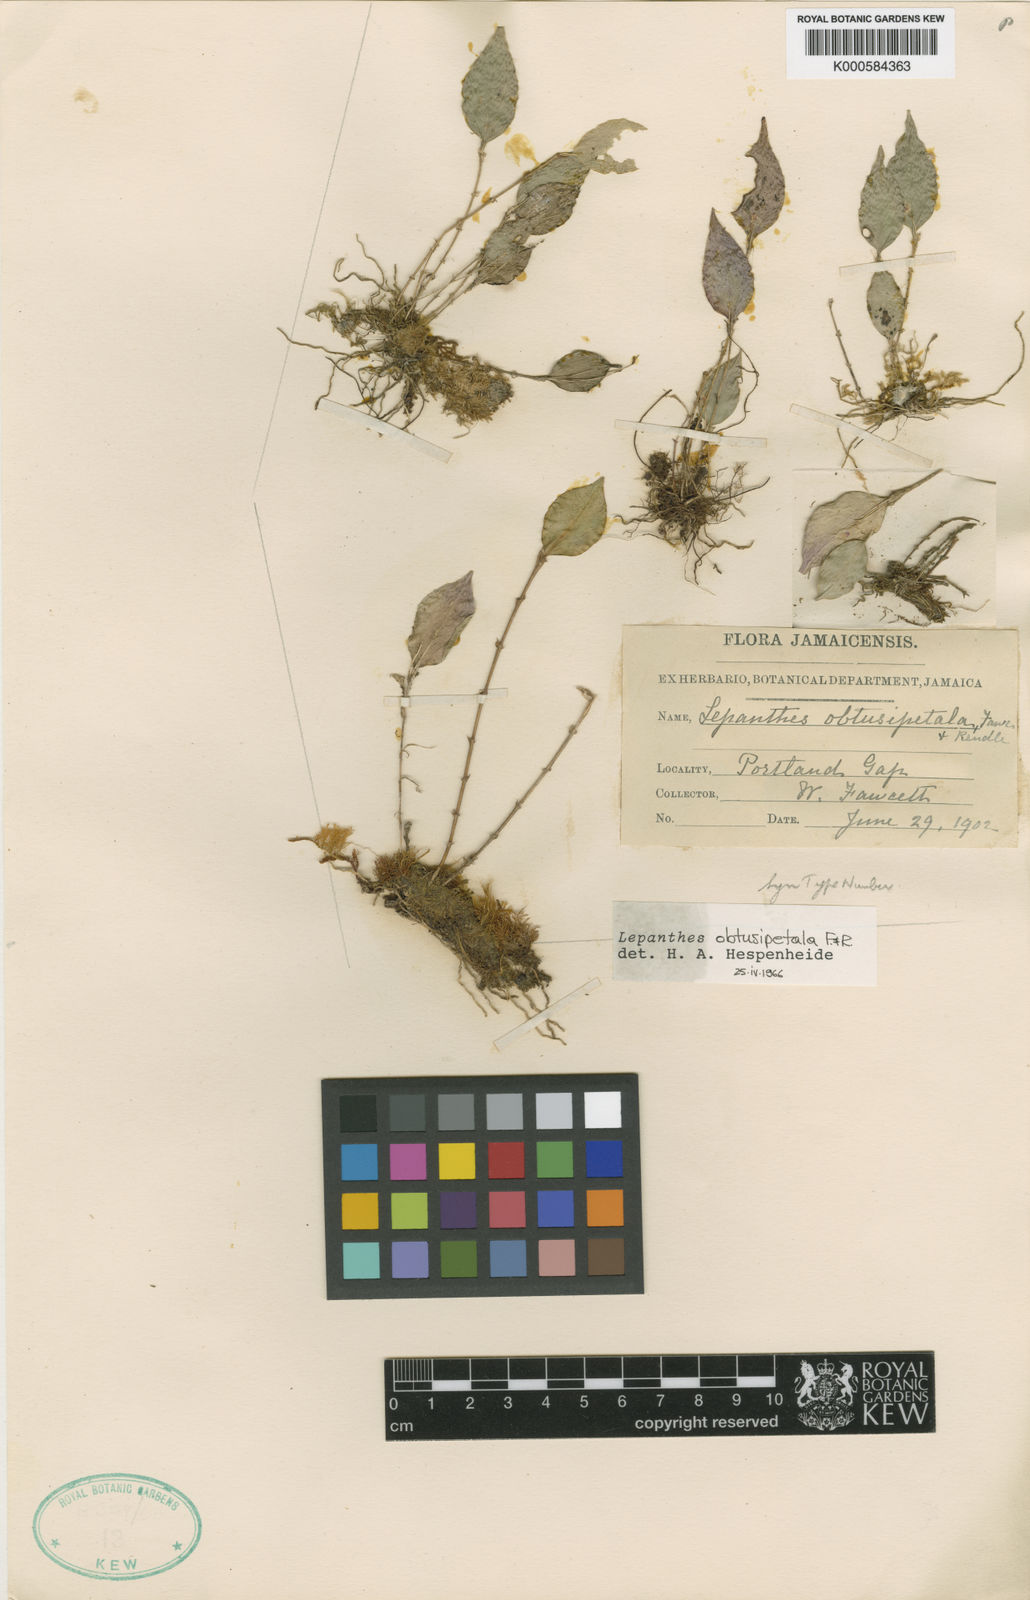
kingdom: Plantae
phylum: Tracheophyta
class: Liliopsida
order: Asparagales
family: Orchidaceae
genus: Lepanthes
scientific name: Lepanthes obtusipetala
